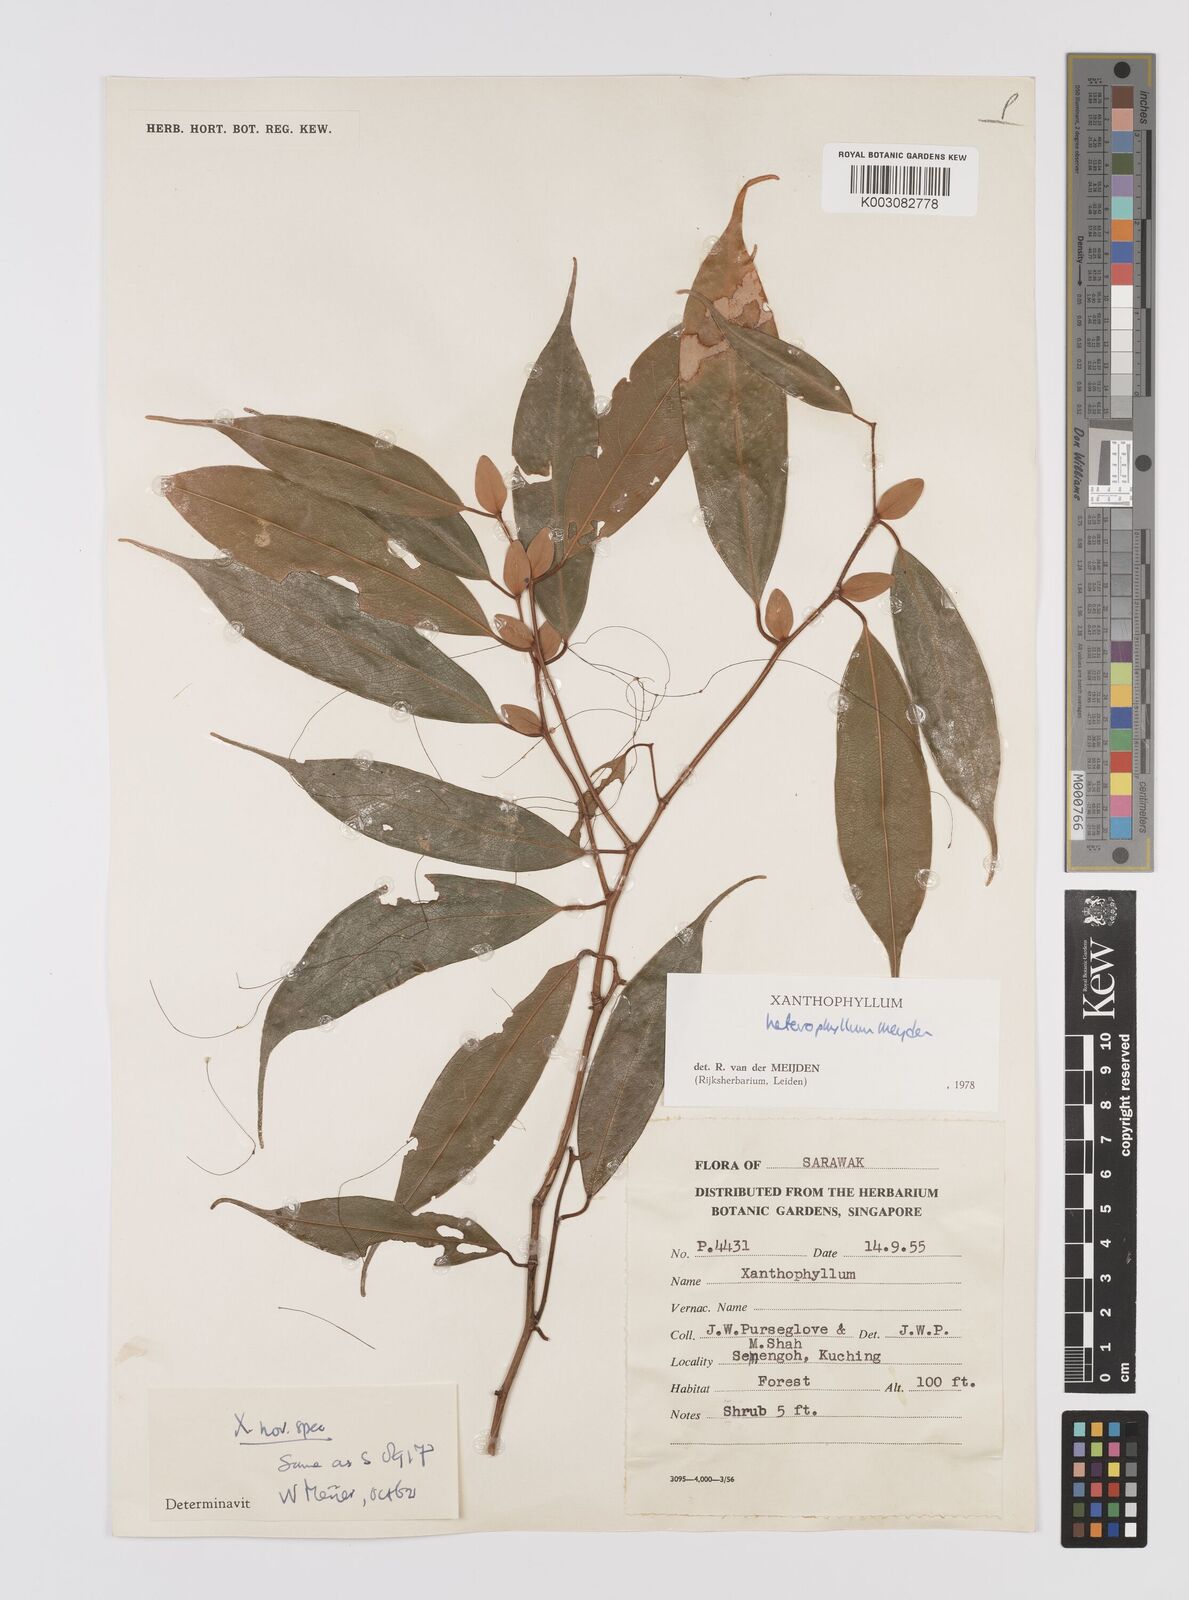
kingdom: Plantae
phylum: Tracheophyta
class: Magnoliopsida
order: Fabales
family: Polygalaceae
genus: Xanthophyllum
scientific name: Xanthophyllum heterophyllum
